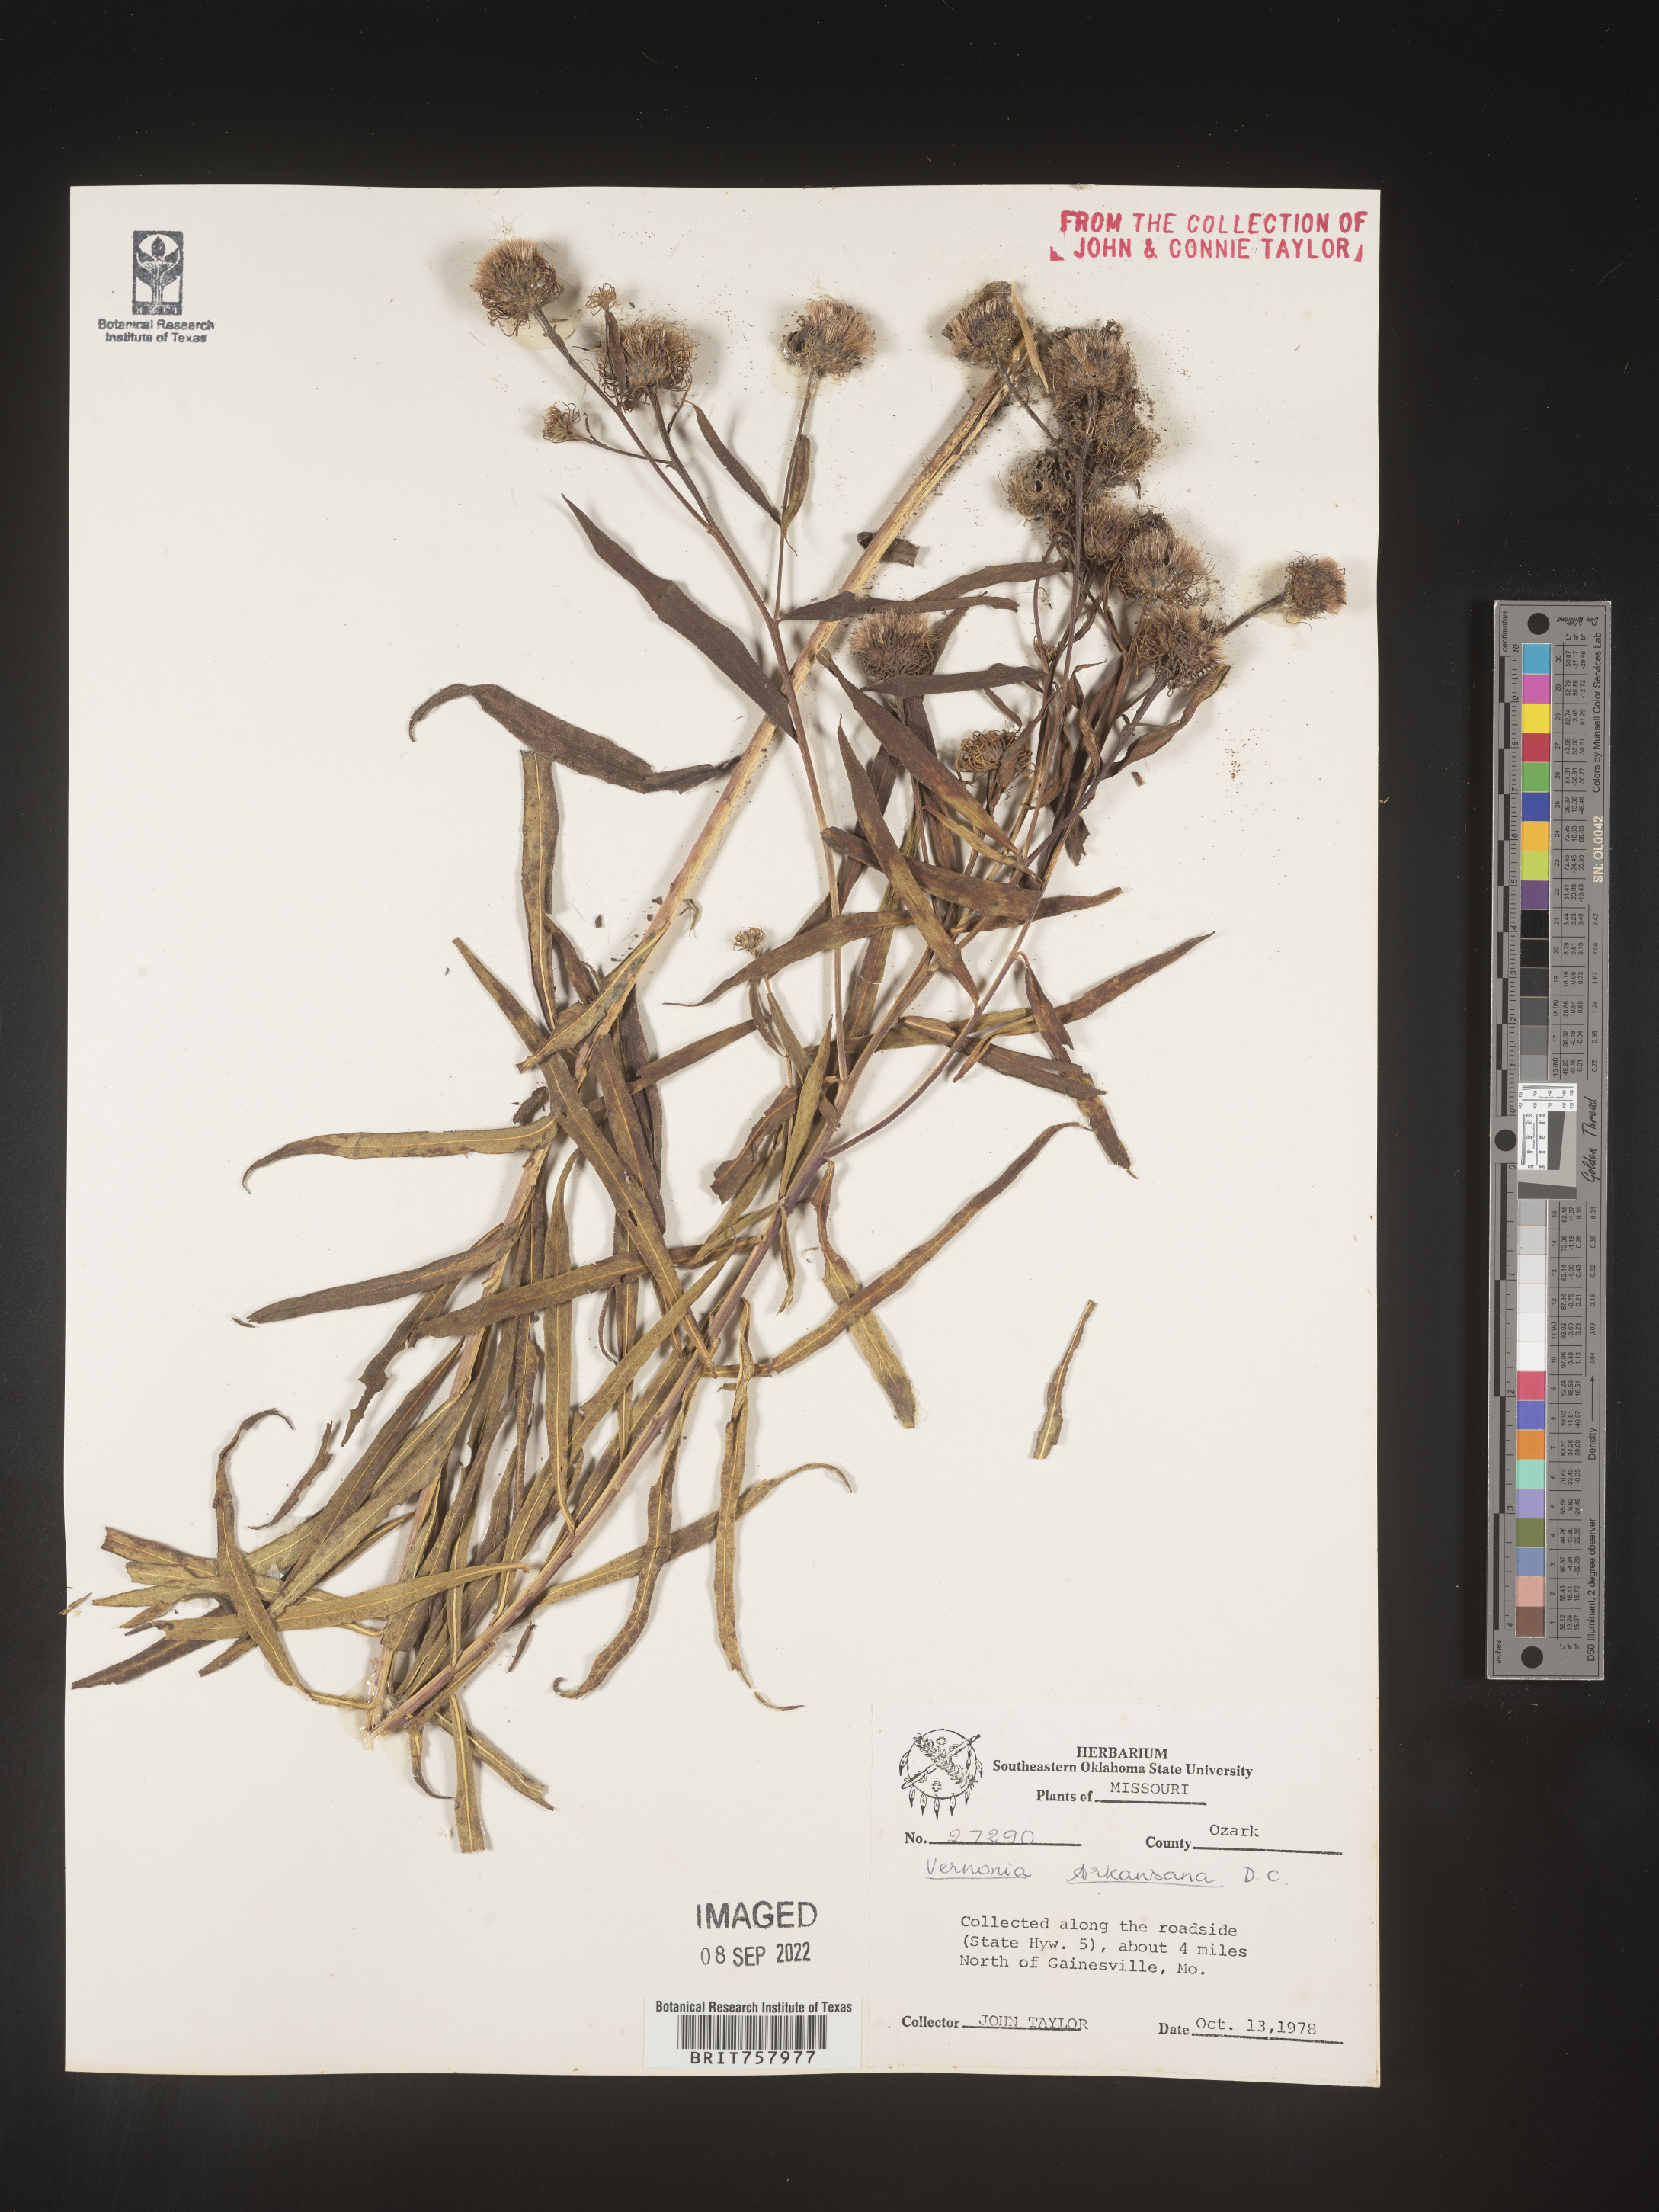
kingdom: Plantae
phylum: Tracheophyta
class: Magnoliopsida
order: Asterales
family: Asteraceae
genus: Vernonia
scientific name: Vernonia arkansana
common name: Ozark ironweed
